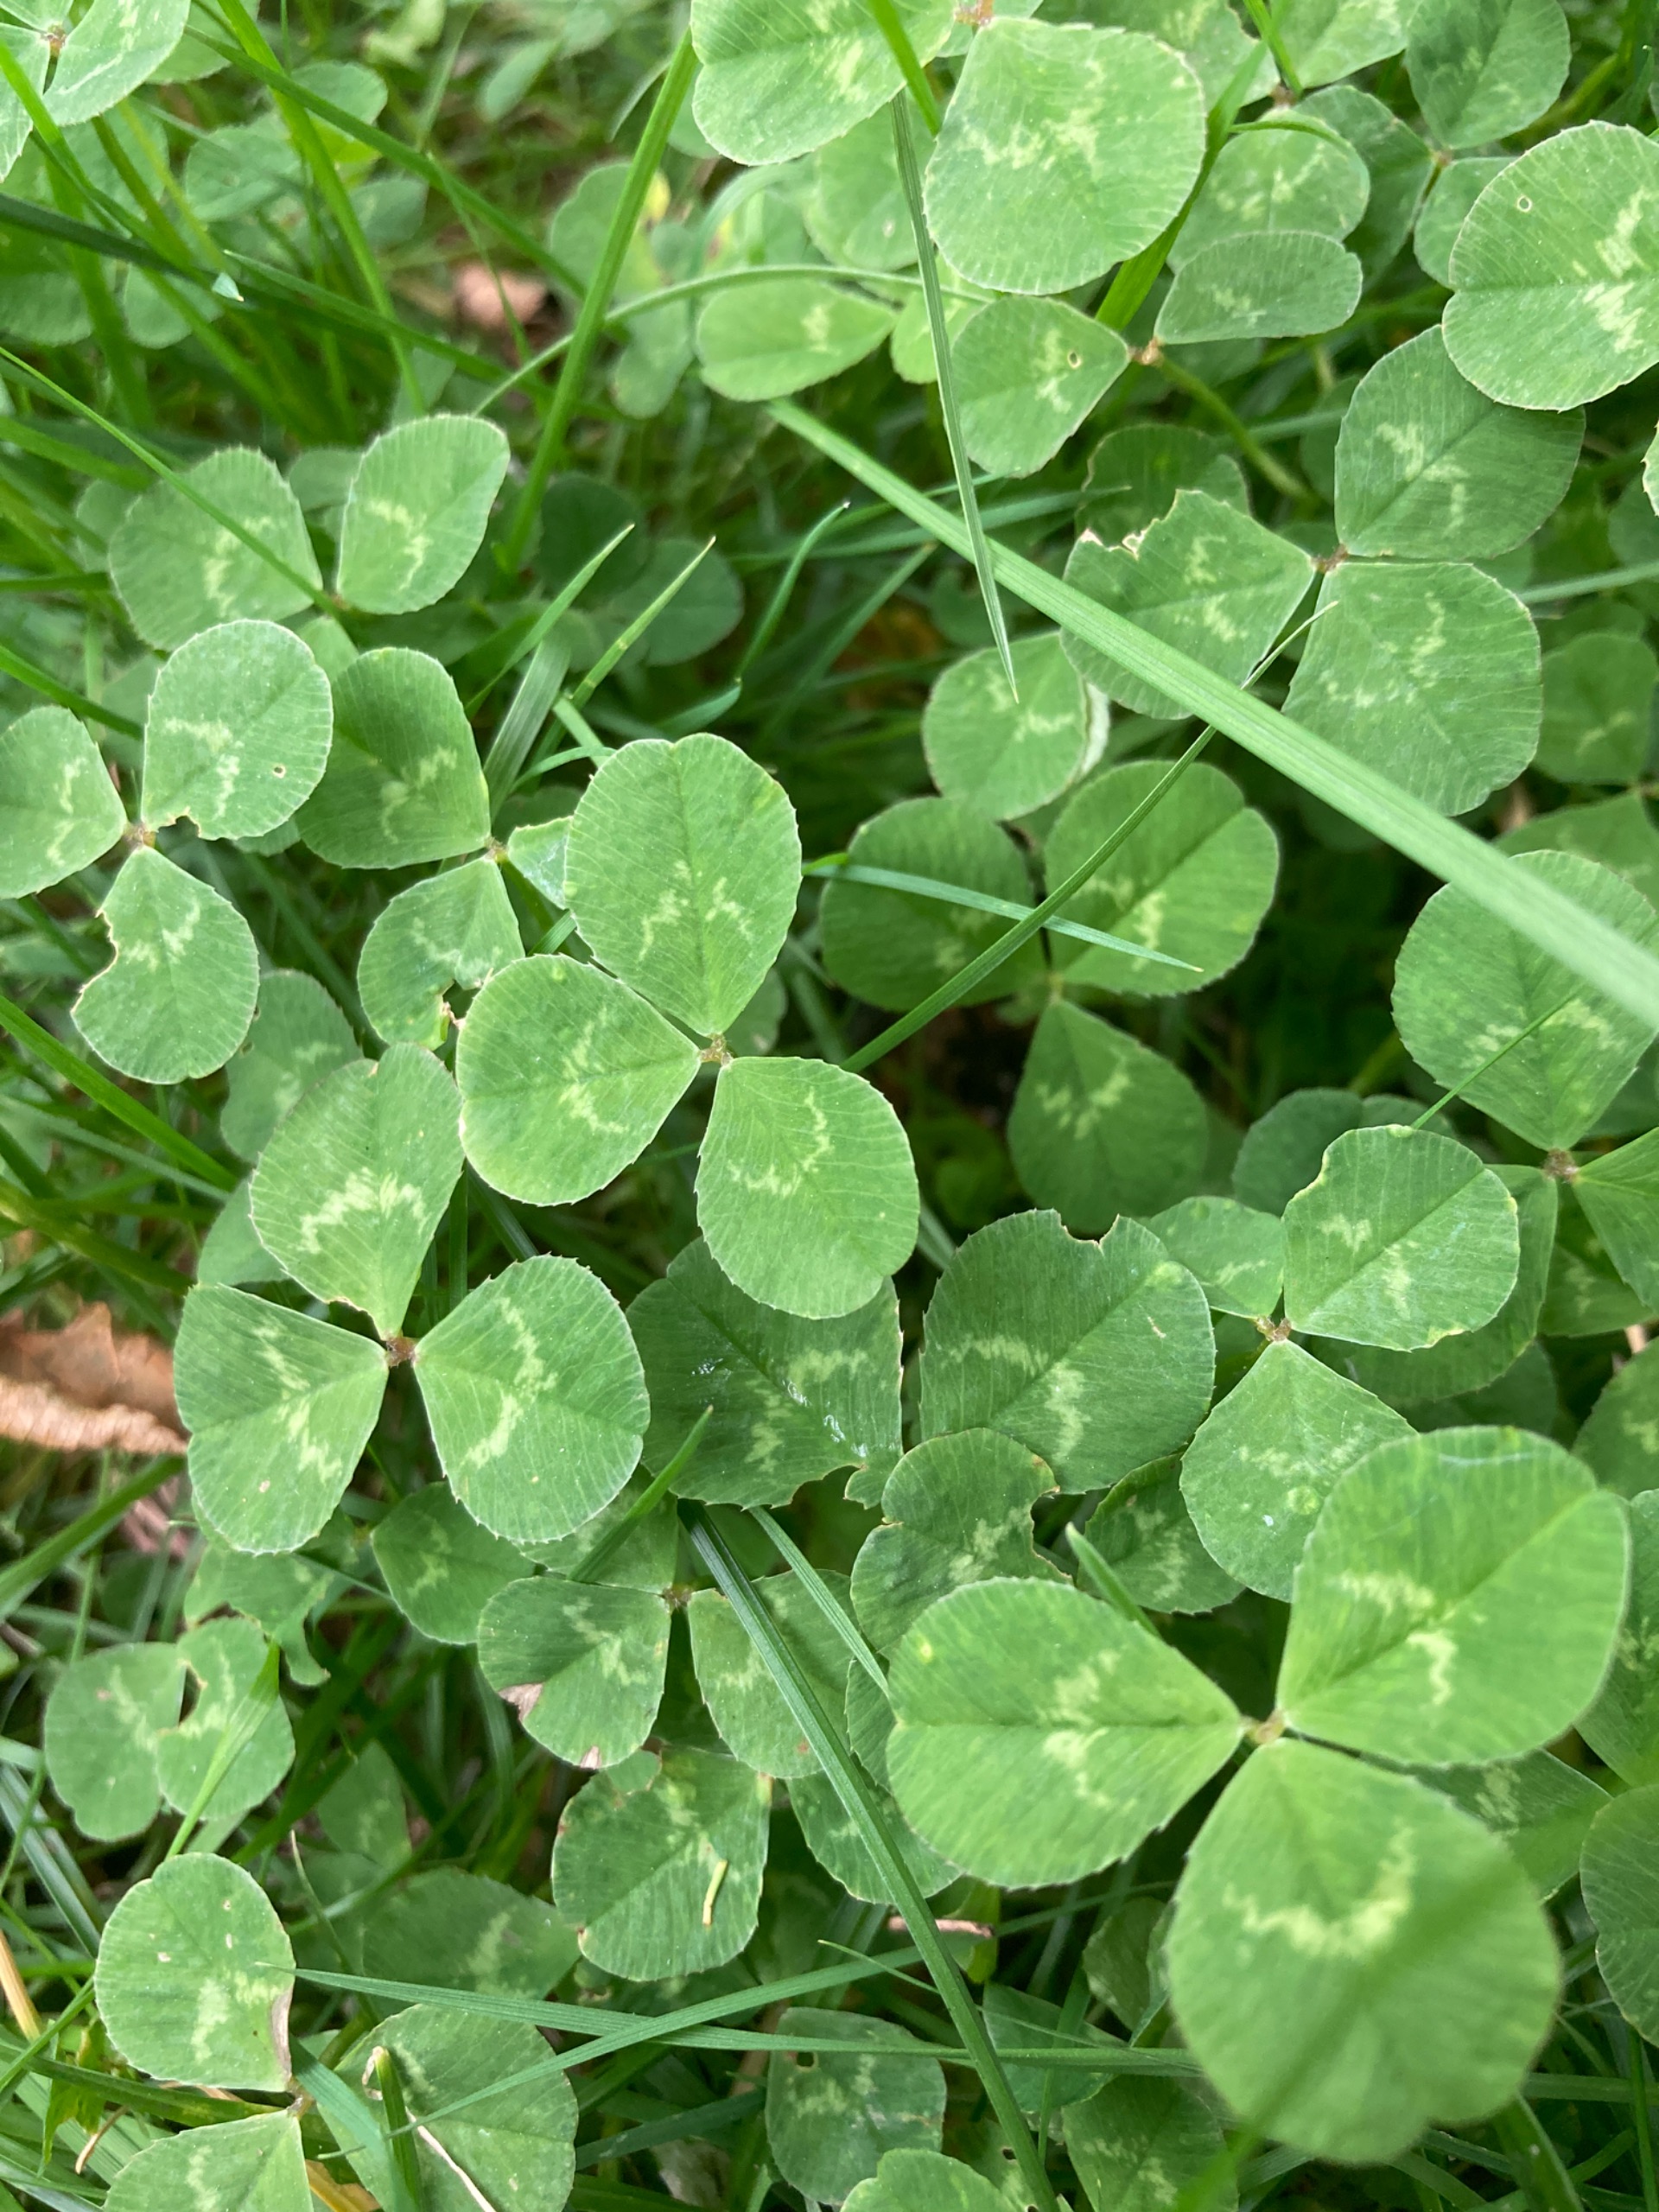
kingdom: Plantae
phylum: Tracheophyta
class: Magnoliopsida
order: Fabales
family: Fabaceae
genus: Trifolium
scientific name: Trifolium repens
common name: Hvid-kløver
